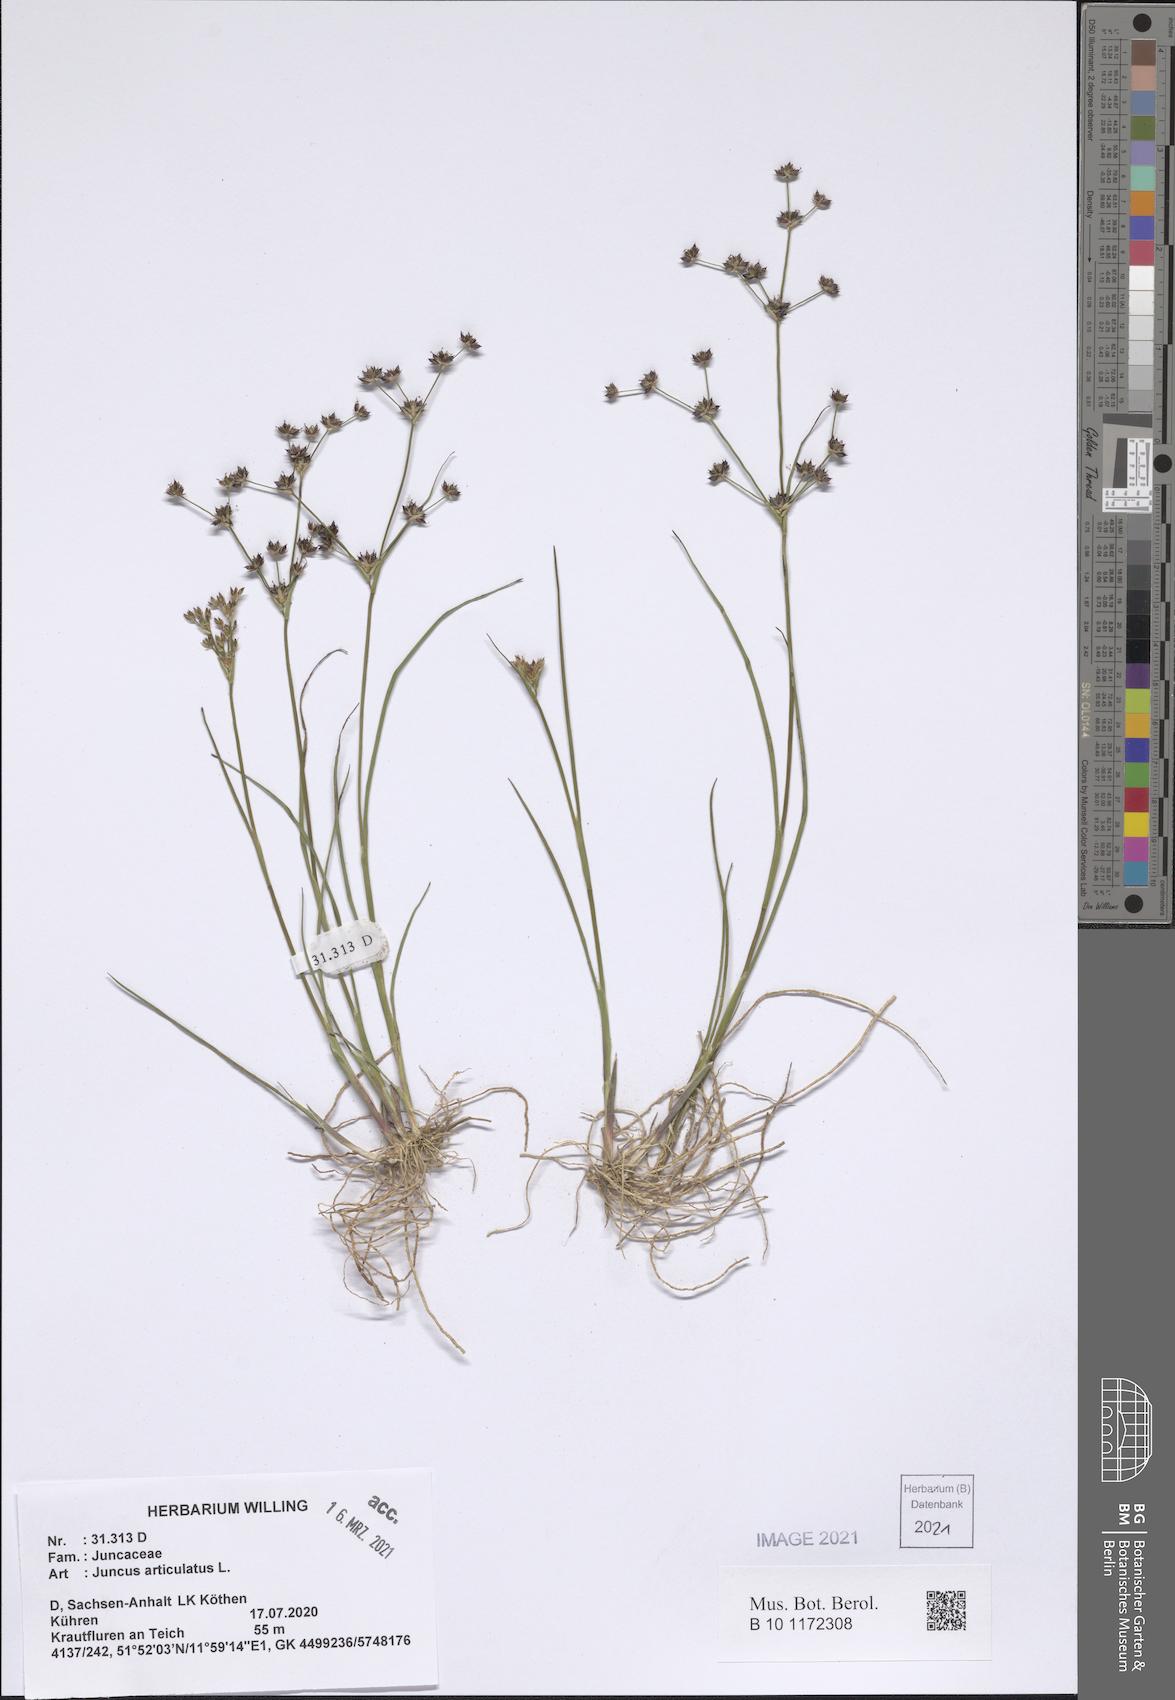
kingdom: Plantae
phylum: Tracheophyta
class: Liliopsida
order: Poales
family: Juncaceae
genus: Juncus
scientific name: Juncus articulatus
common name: Jointed rush
